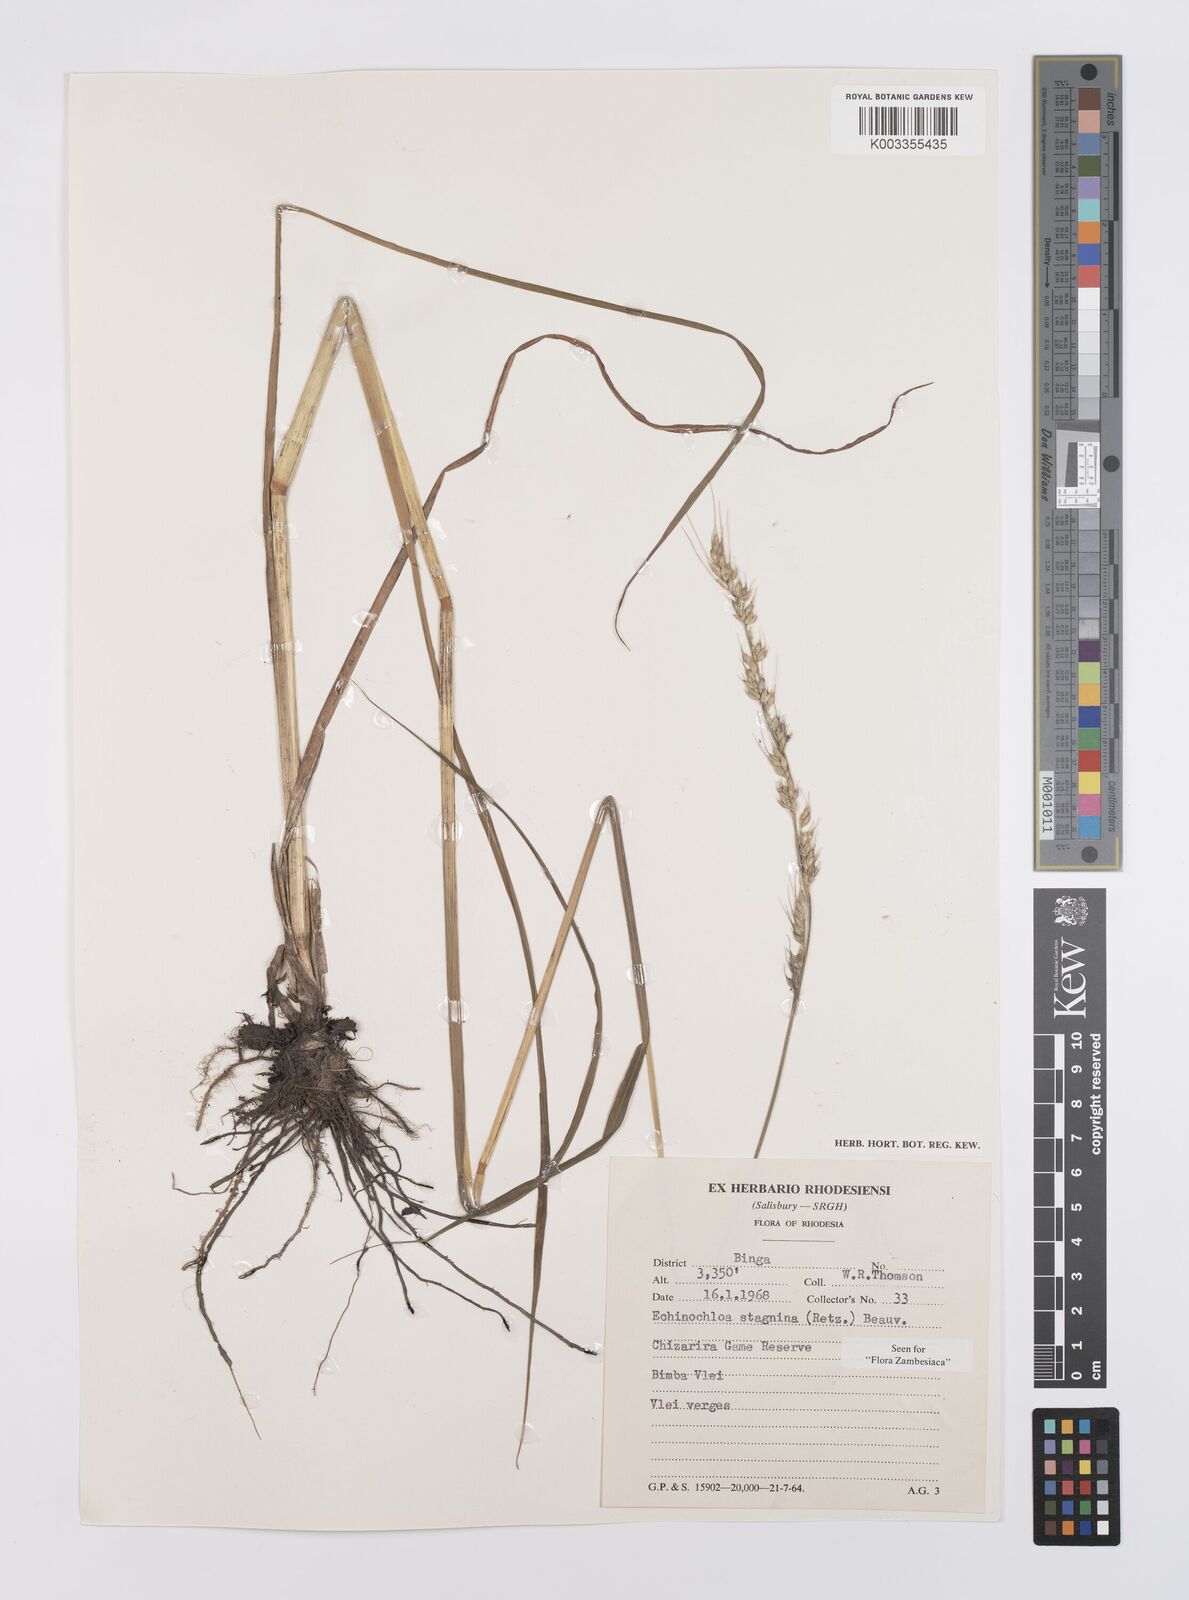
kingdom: Plantae
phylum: Tracheophyta
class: Liliopsida
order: Poales
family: Poaceae
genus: Echinochloa
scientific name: Echinochloa stagnina
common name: Burgu grass
